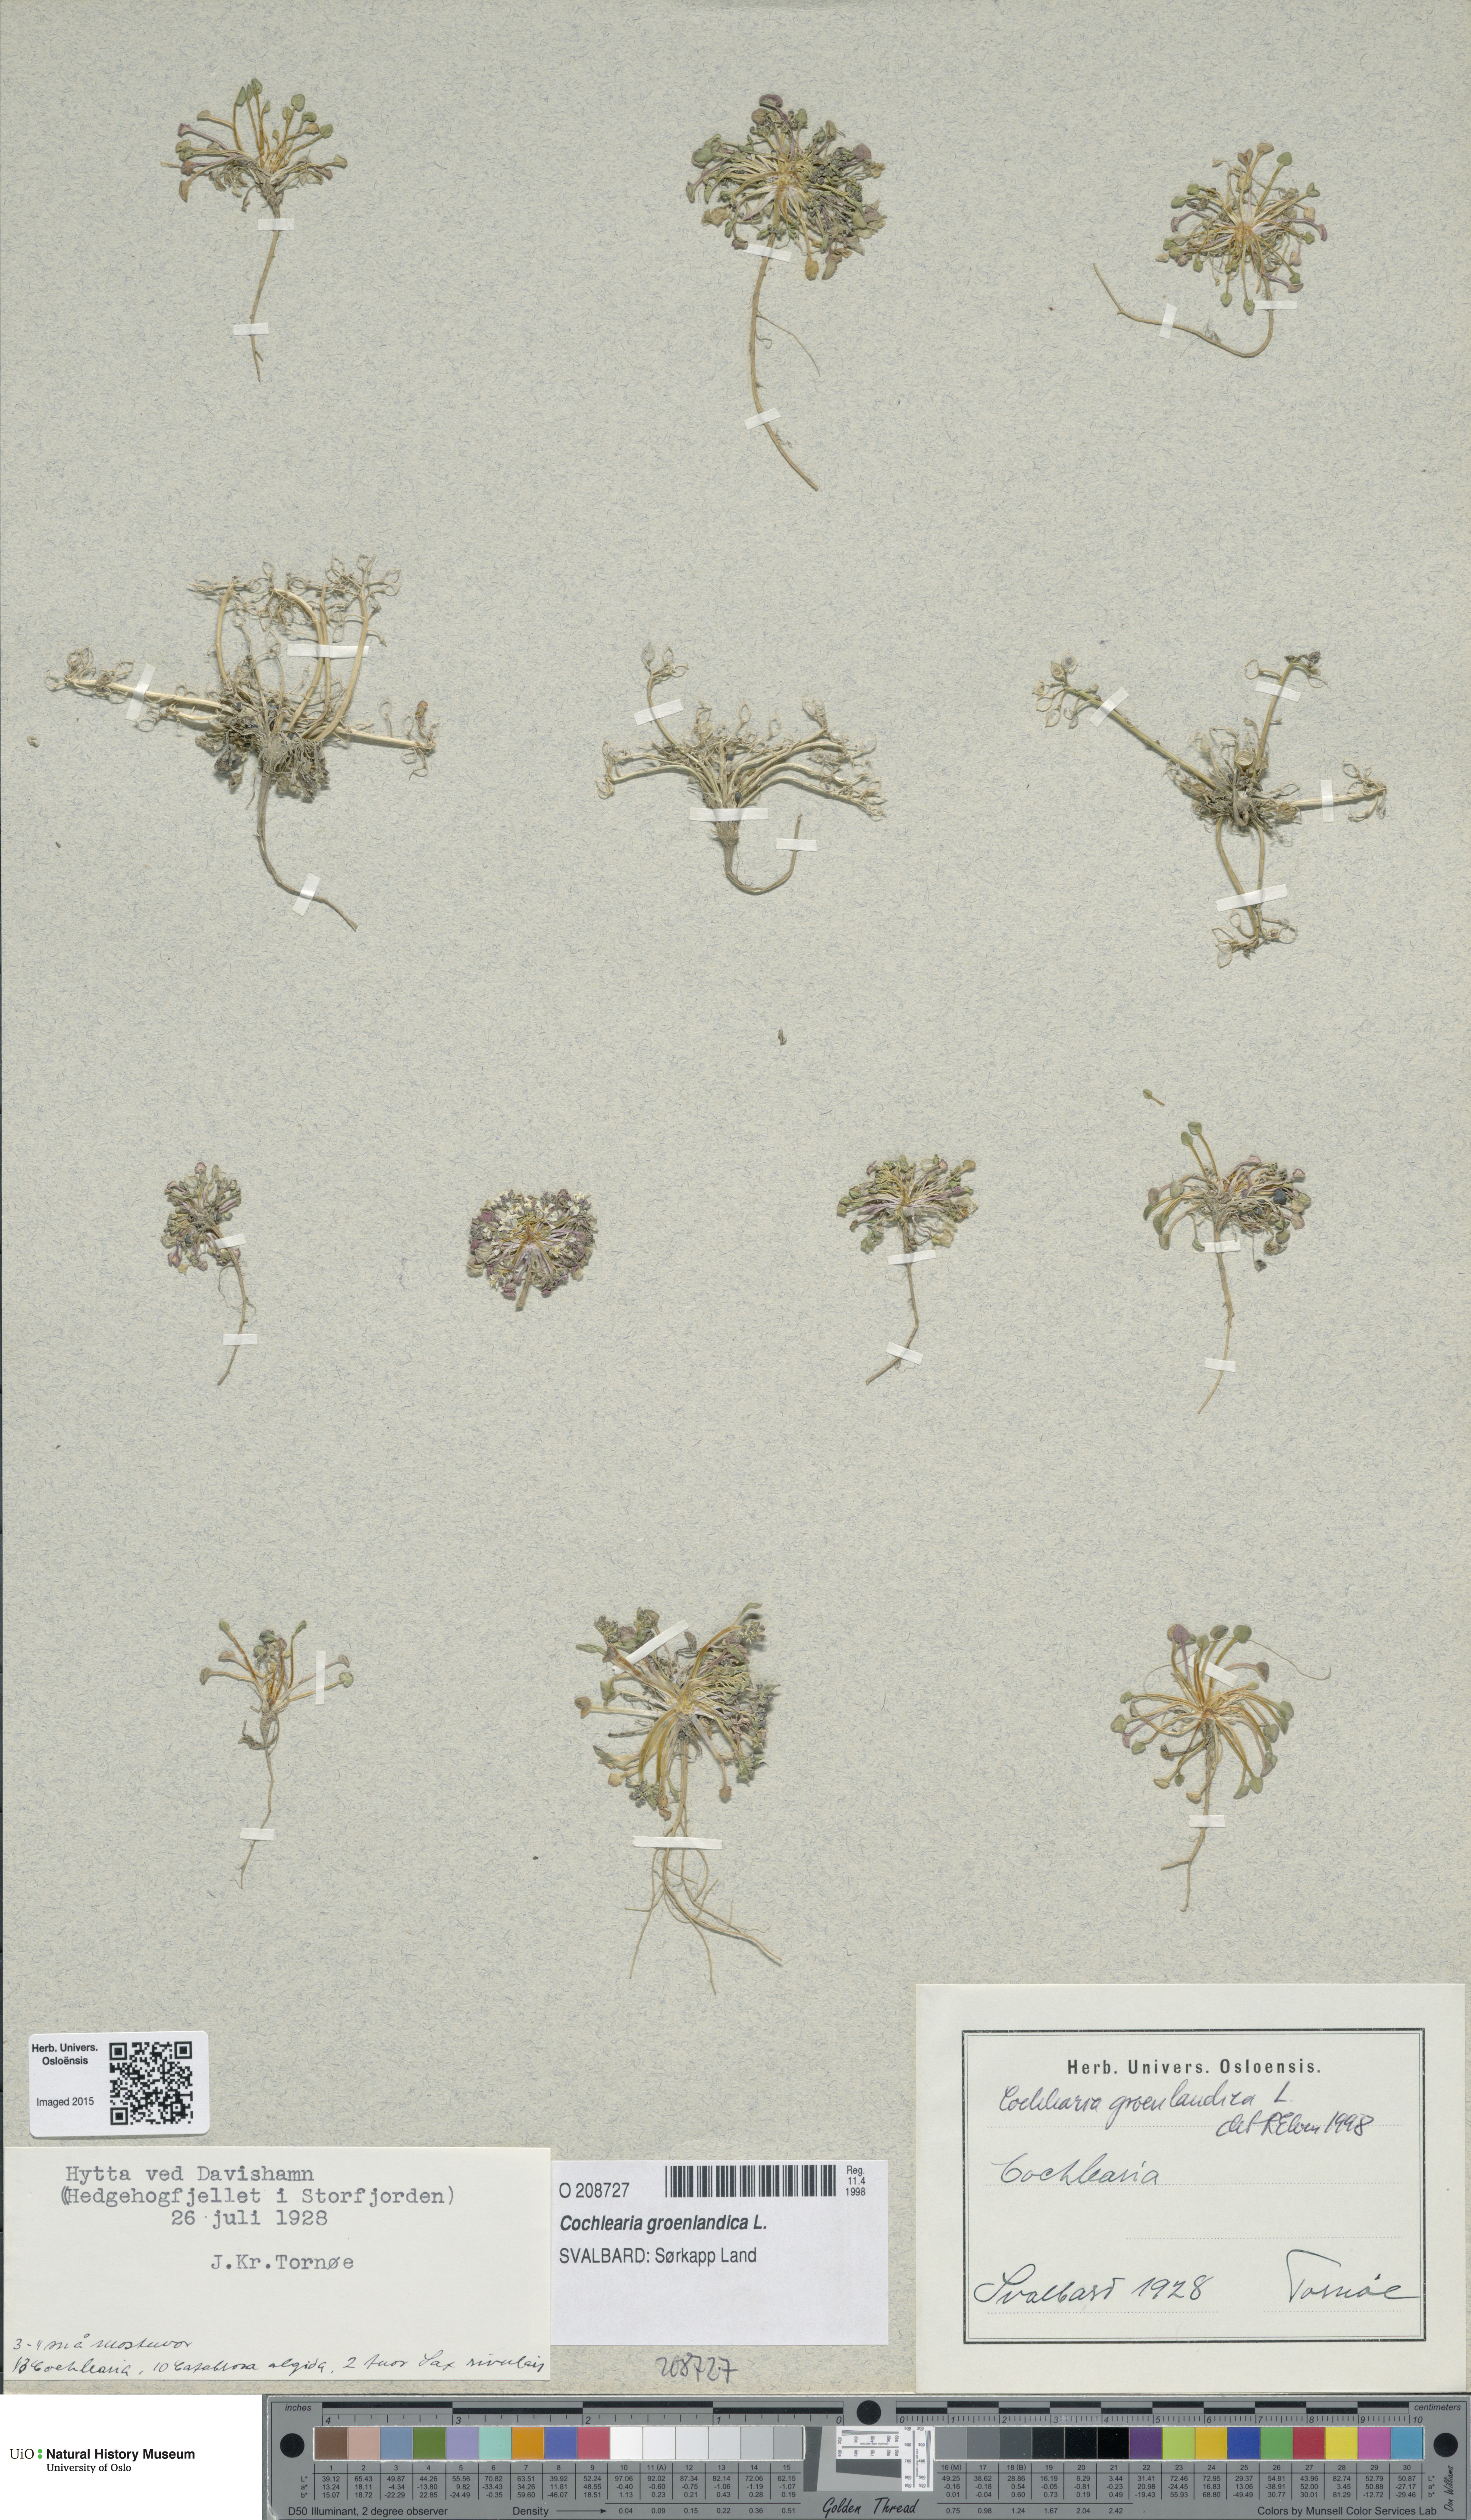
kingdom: Plantae
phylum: Tracheophyta
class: Magnoliopsida
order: Brassicales
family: Brassicaceae
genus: Cochlearia
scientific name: Cochlearia groenlandica
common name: Danish scurvygrass
